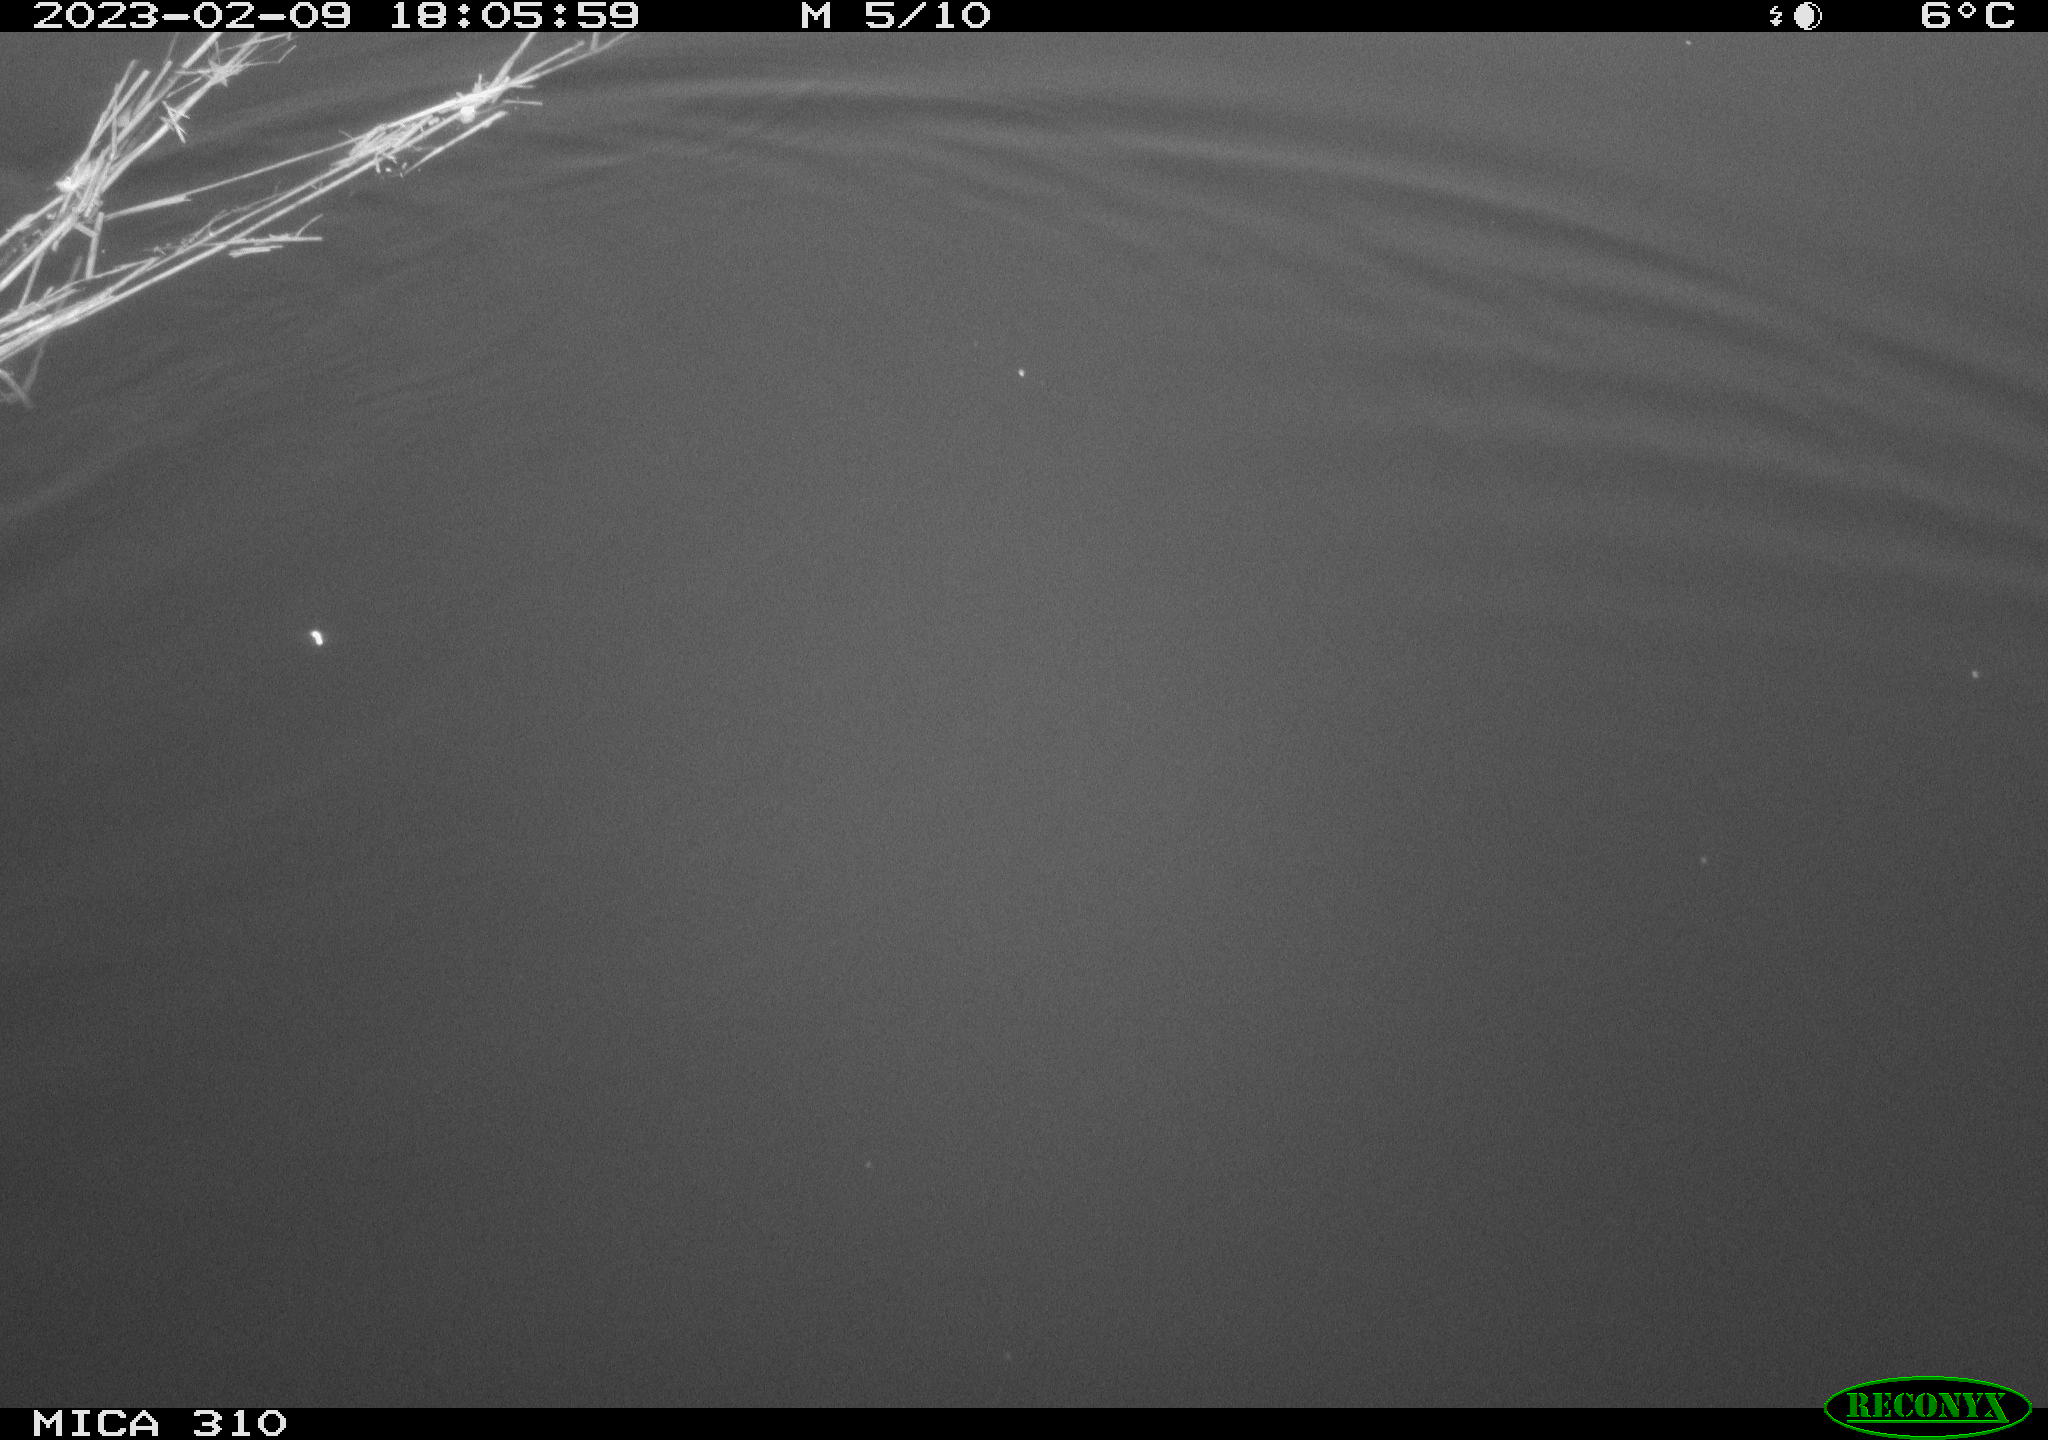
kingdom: Animalia
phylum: Chordata
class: Aves
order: Anseriformes
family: Anatidae
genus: Anas
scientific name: Anas
